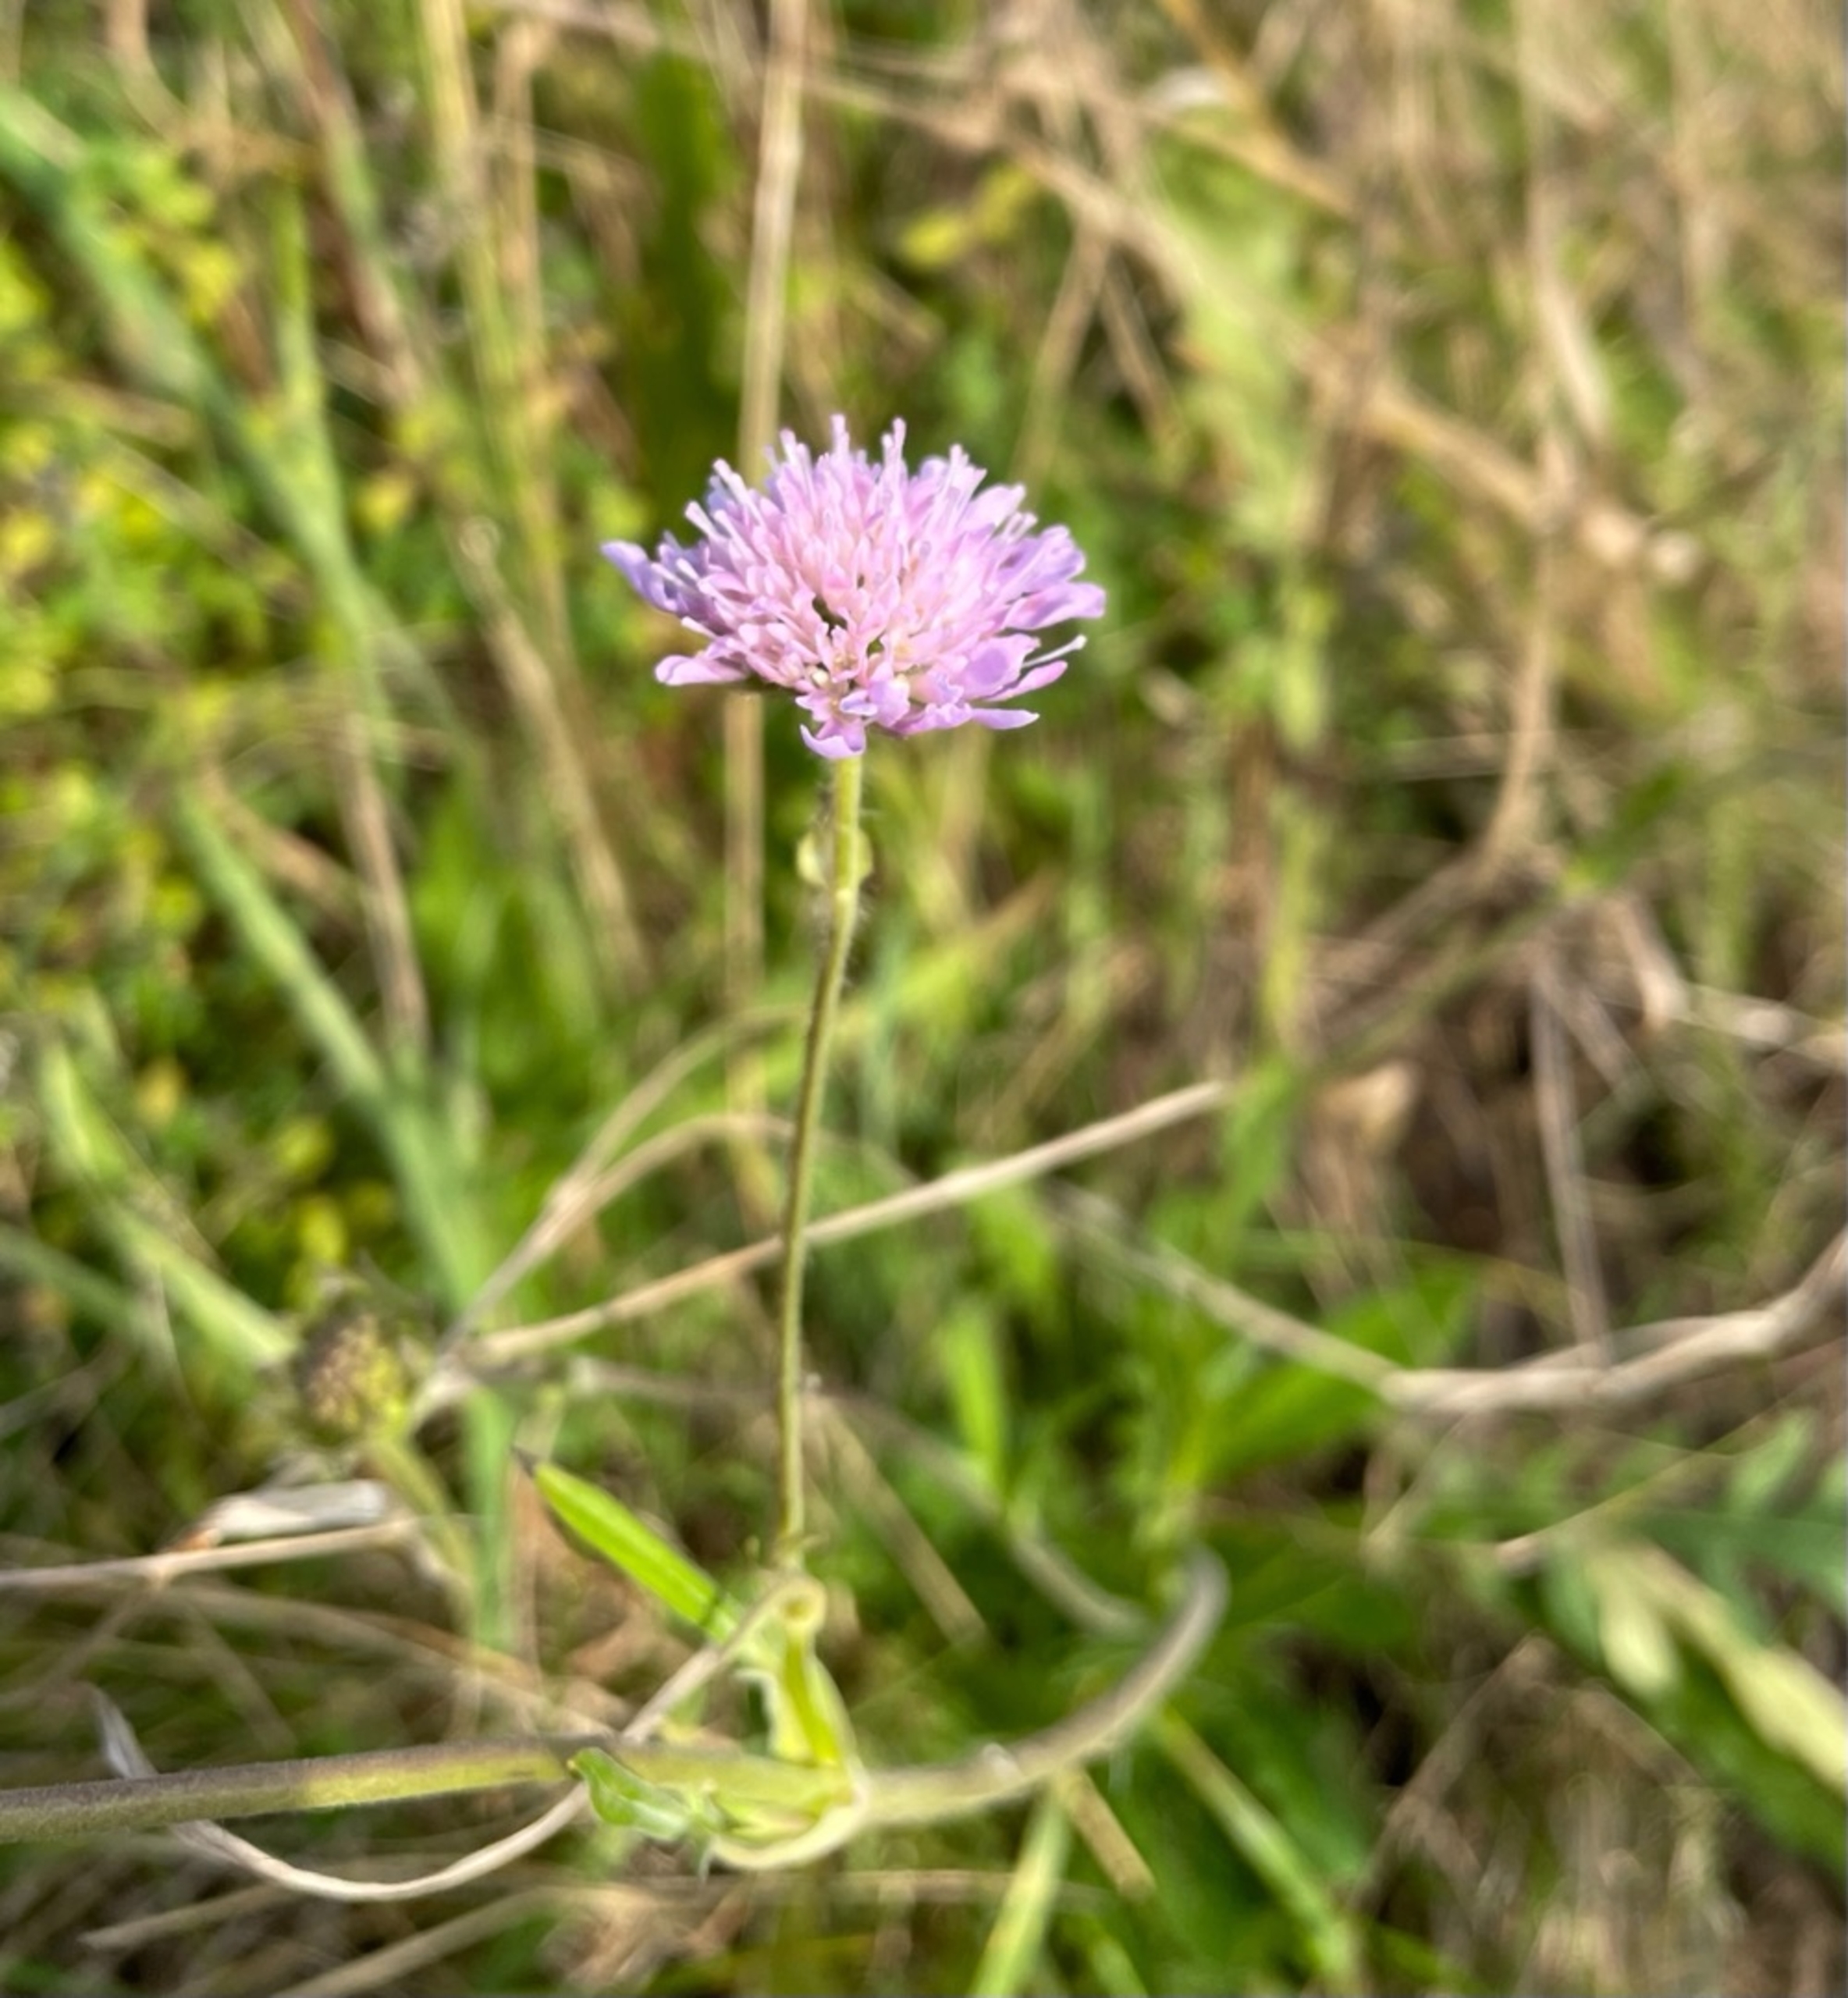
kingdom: Plantae
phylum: Tracheophyta
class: Magnoliopsida
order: Dipsacales
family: Caprifoliaceae
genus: Knautia
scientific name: Knautia arvensis
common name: Blåhat
